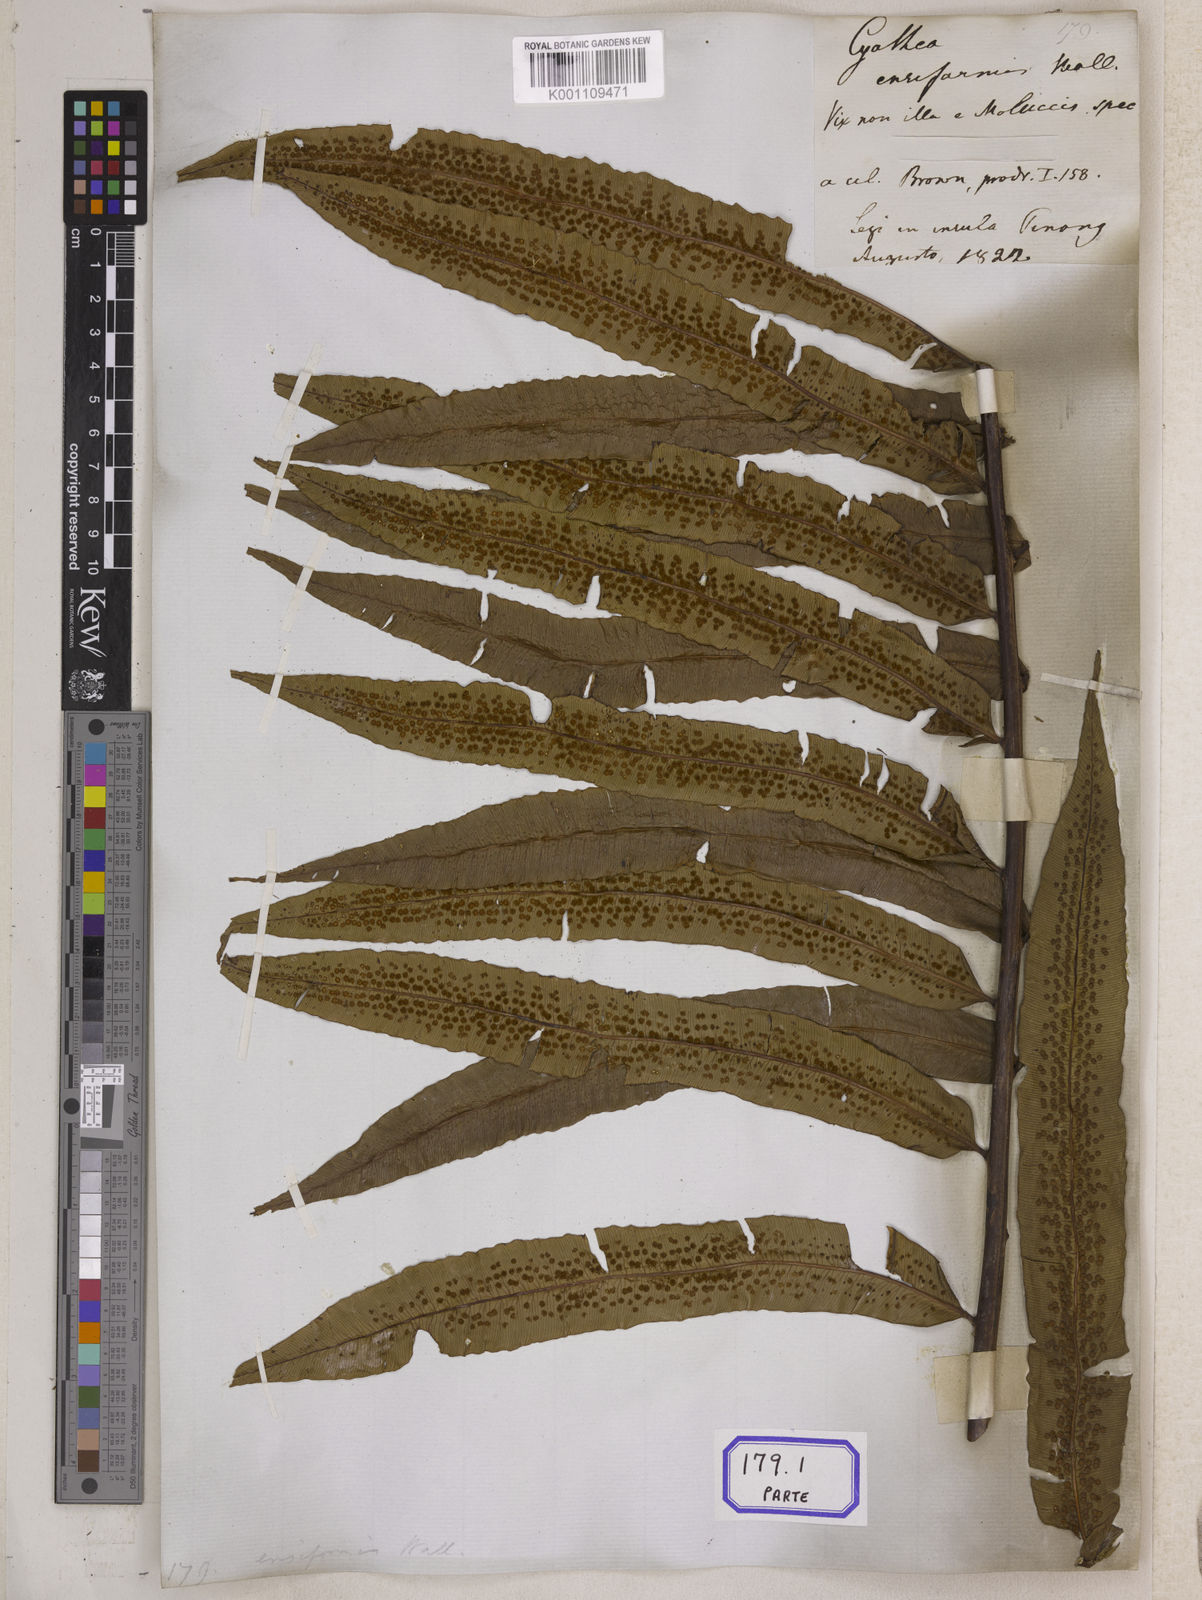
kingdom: Plantae
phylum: Tracheophyta
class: Polypodiopsida
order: Cyatheales
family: Cyatheaceae
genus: Sphaeropteris
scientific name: Sphaeropteris moluccana
